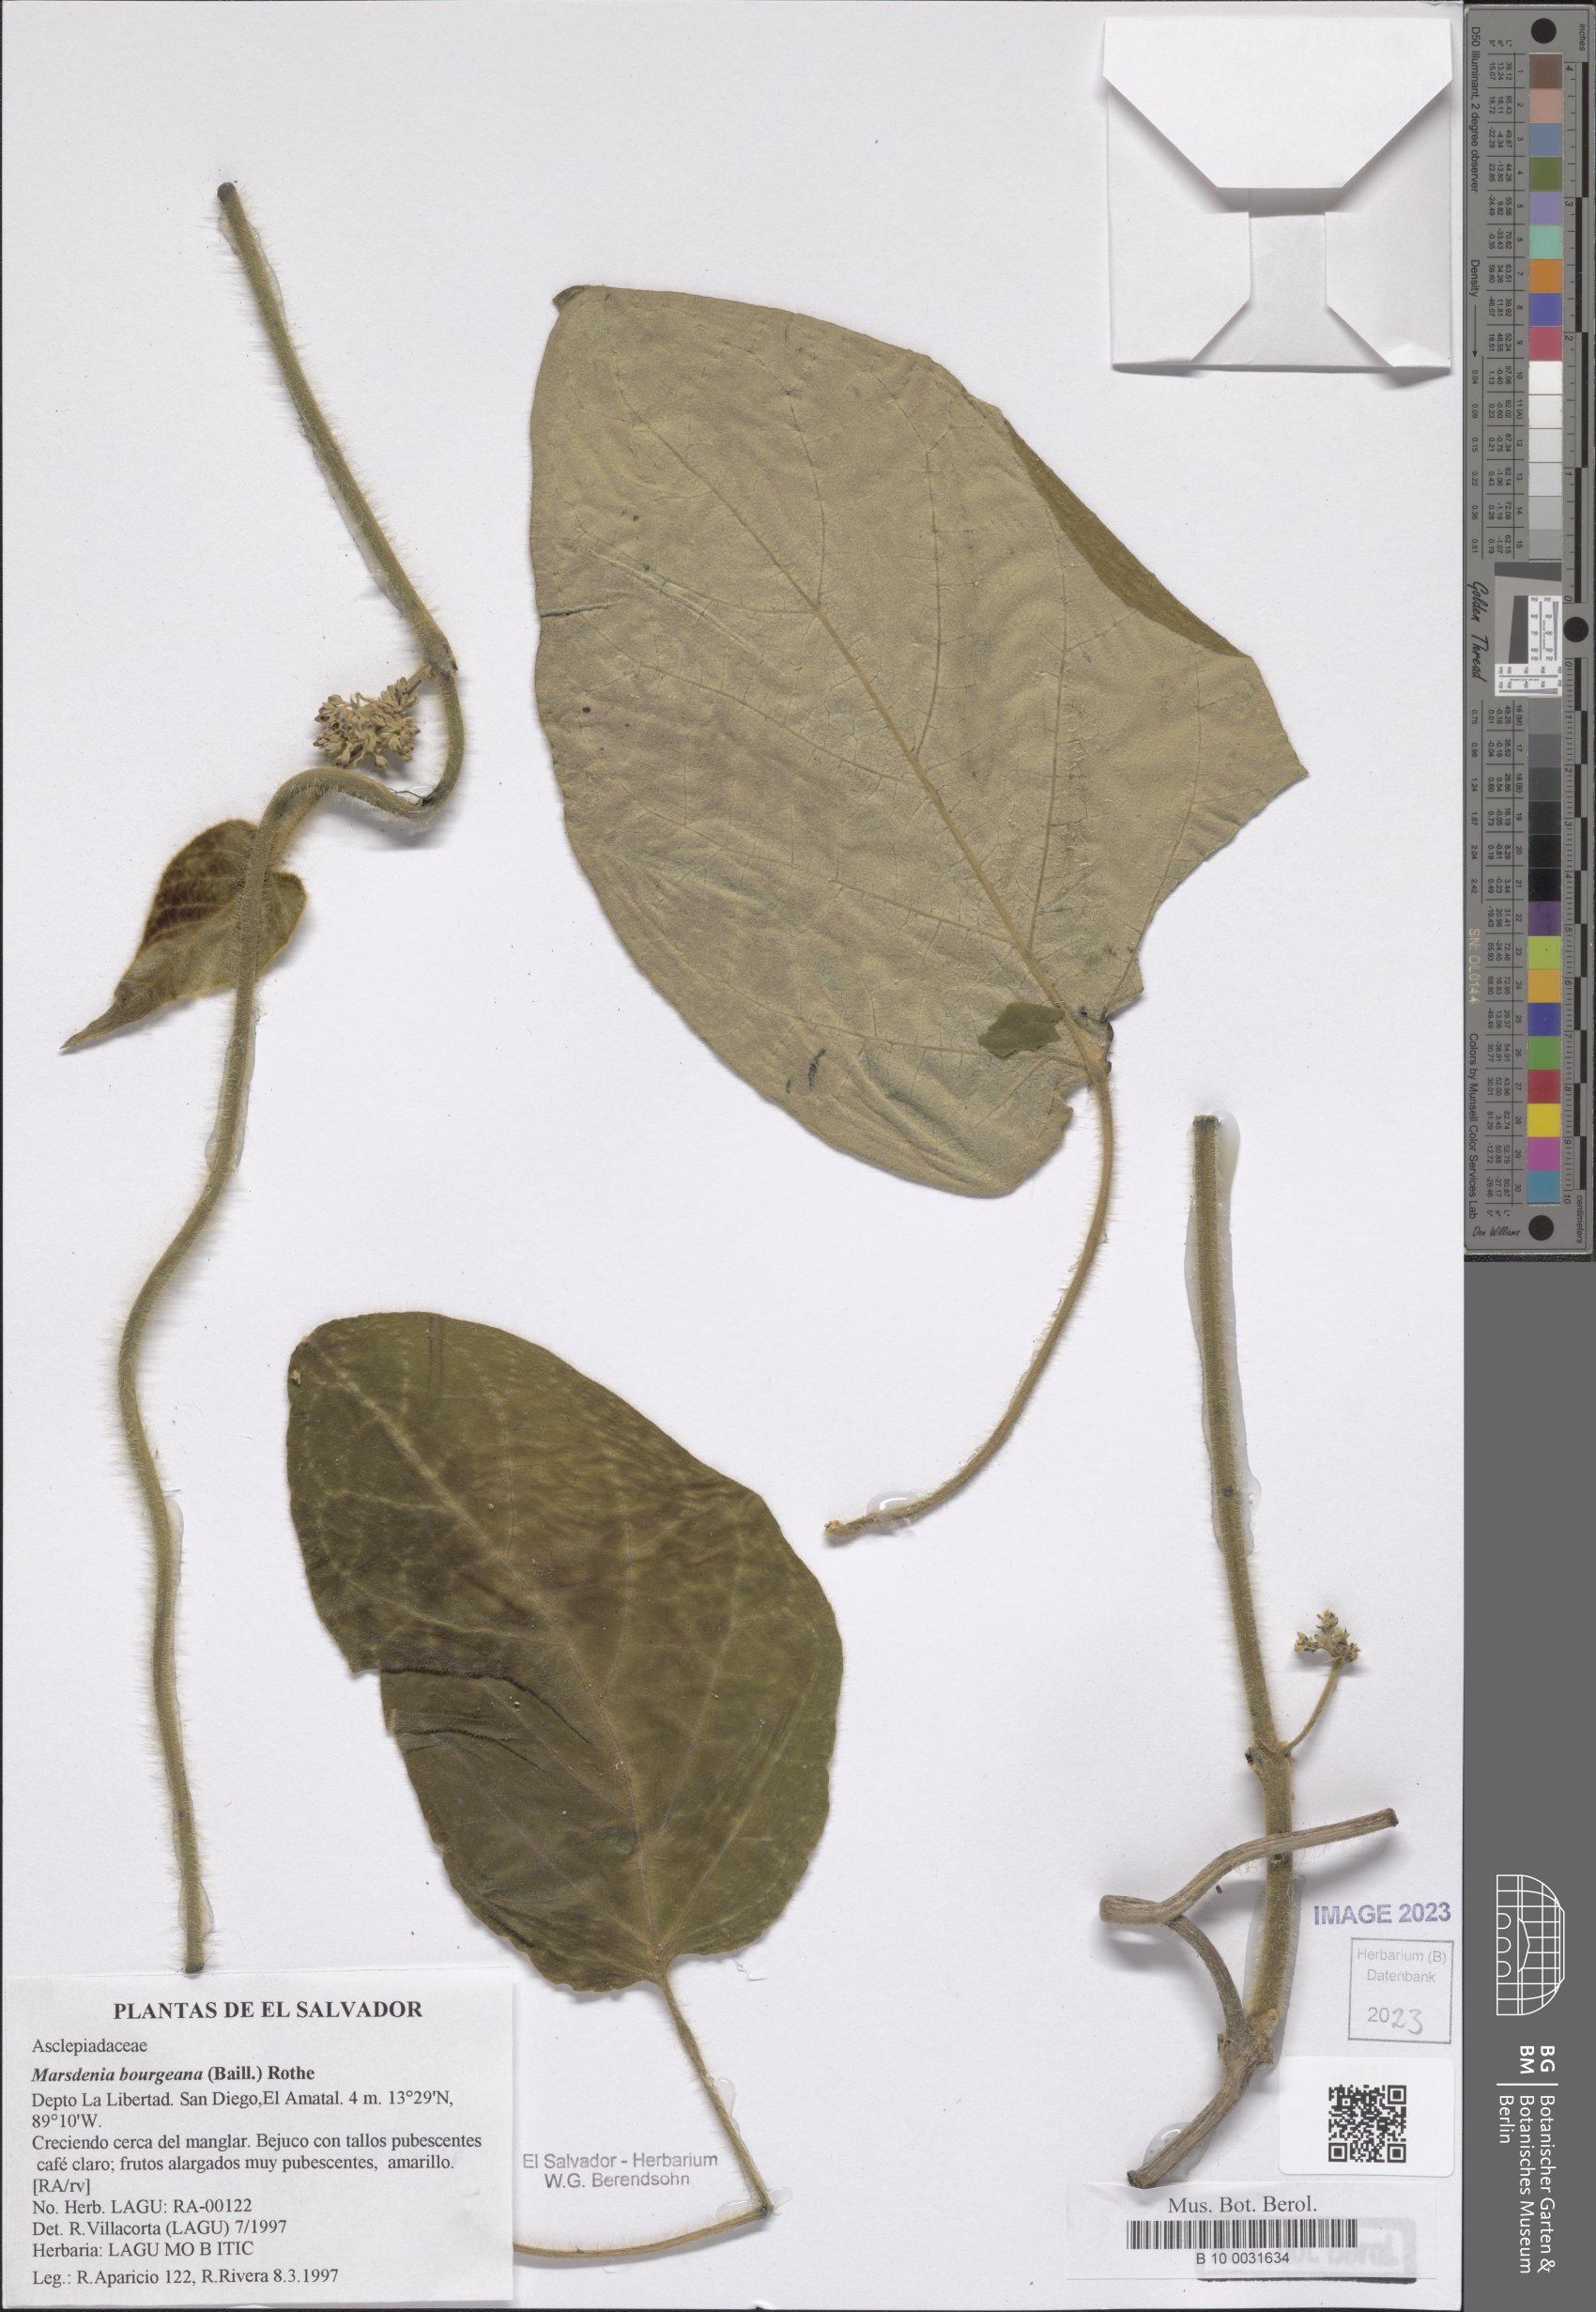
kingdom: Plantae
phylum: Tracheophyta
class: Magnoliopsida
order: Gentianales
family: Apocynaceae
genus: Ruehssia
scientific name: Ruehssia bourgaeana
